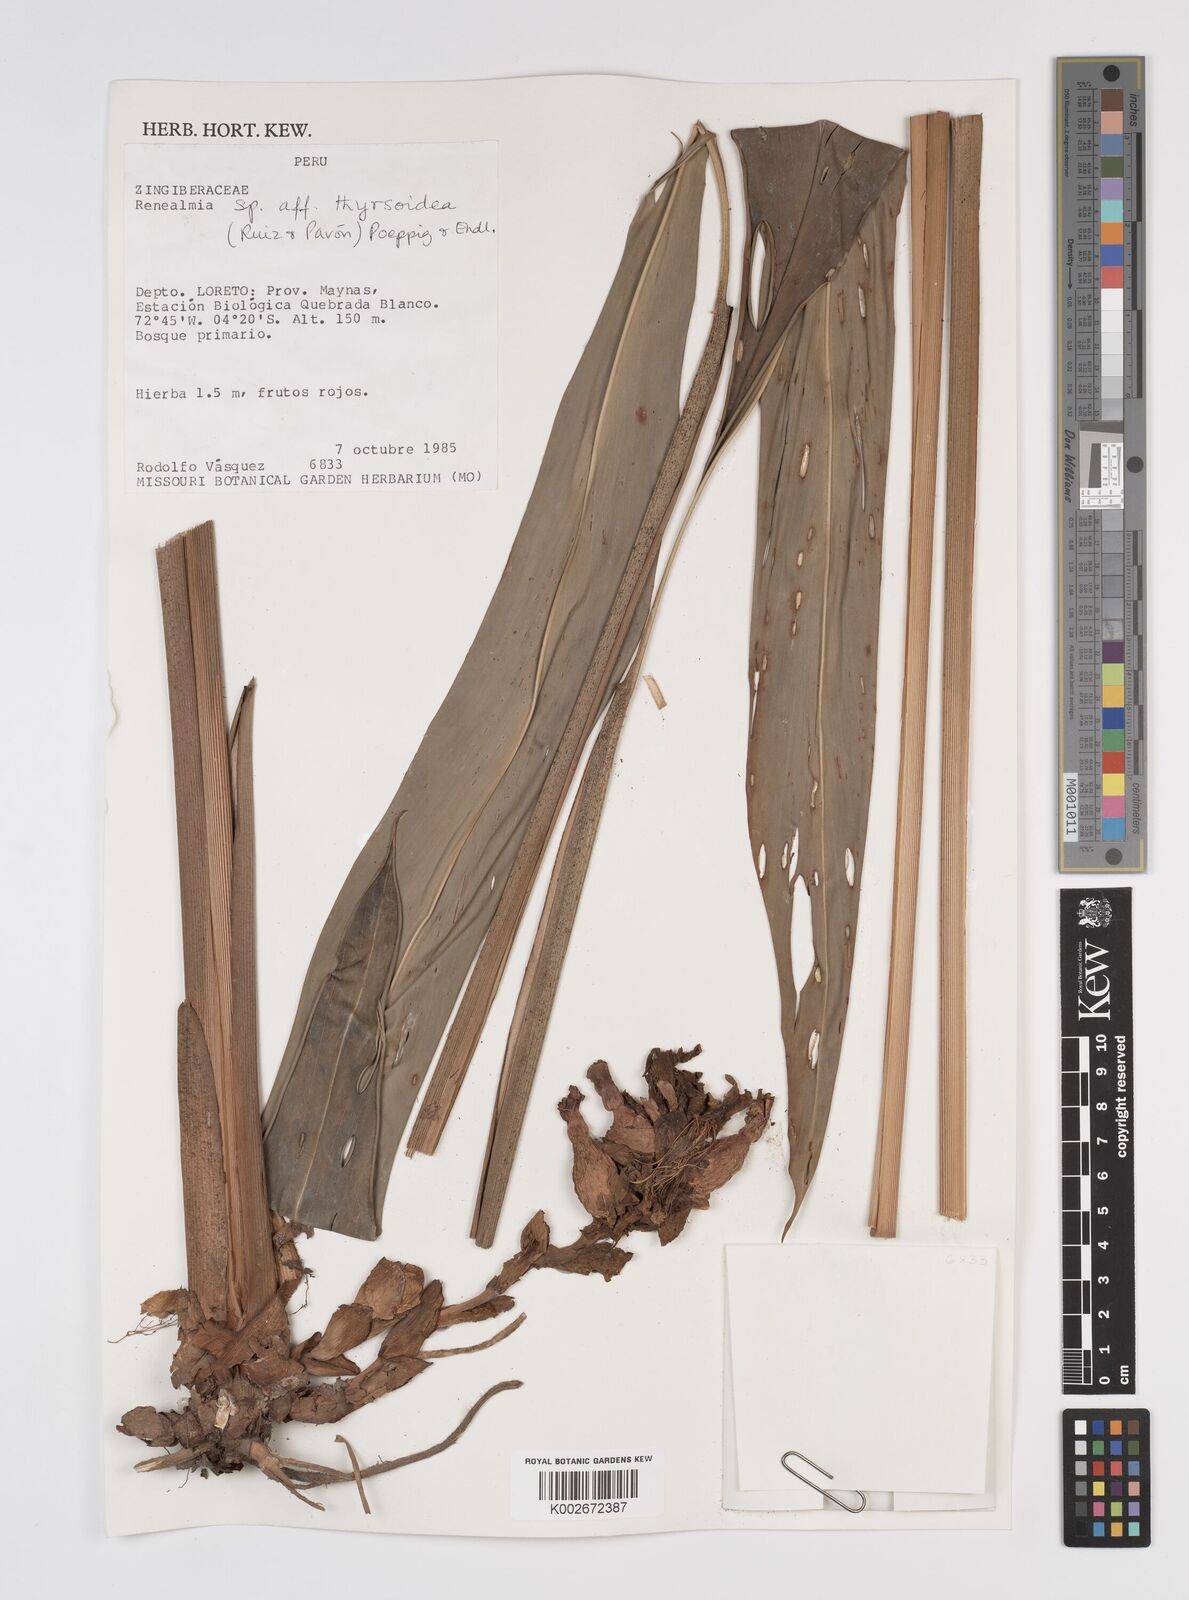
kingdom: Plantae
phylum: Tracheophyta
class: Liliopsida
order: Zingiberales
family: Zingiberaceae
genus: Renealmia
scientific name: Renealmia thyrsoidea
